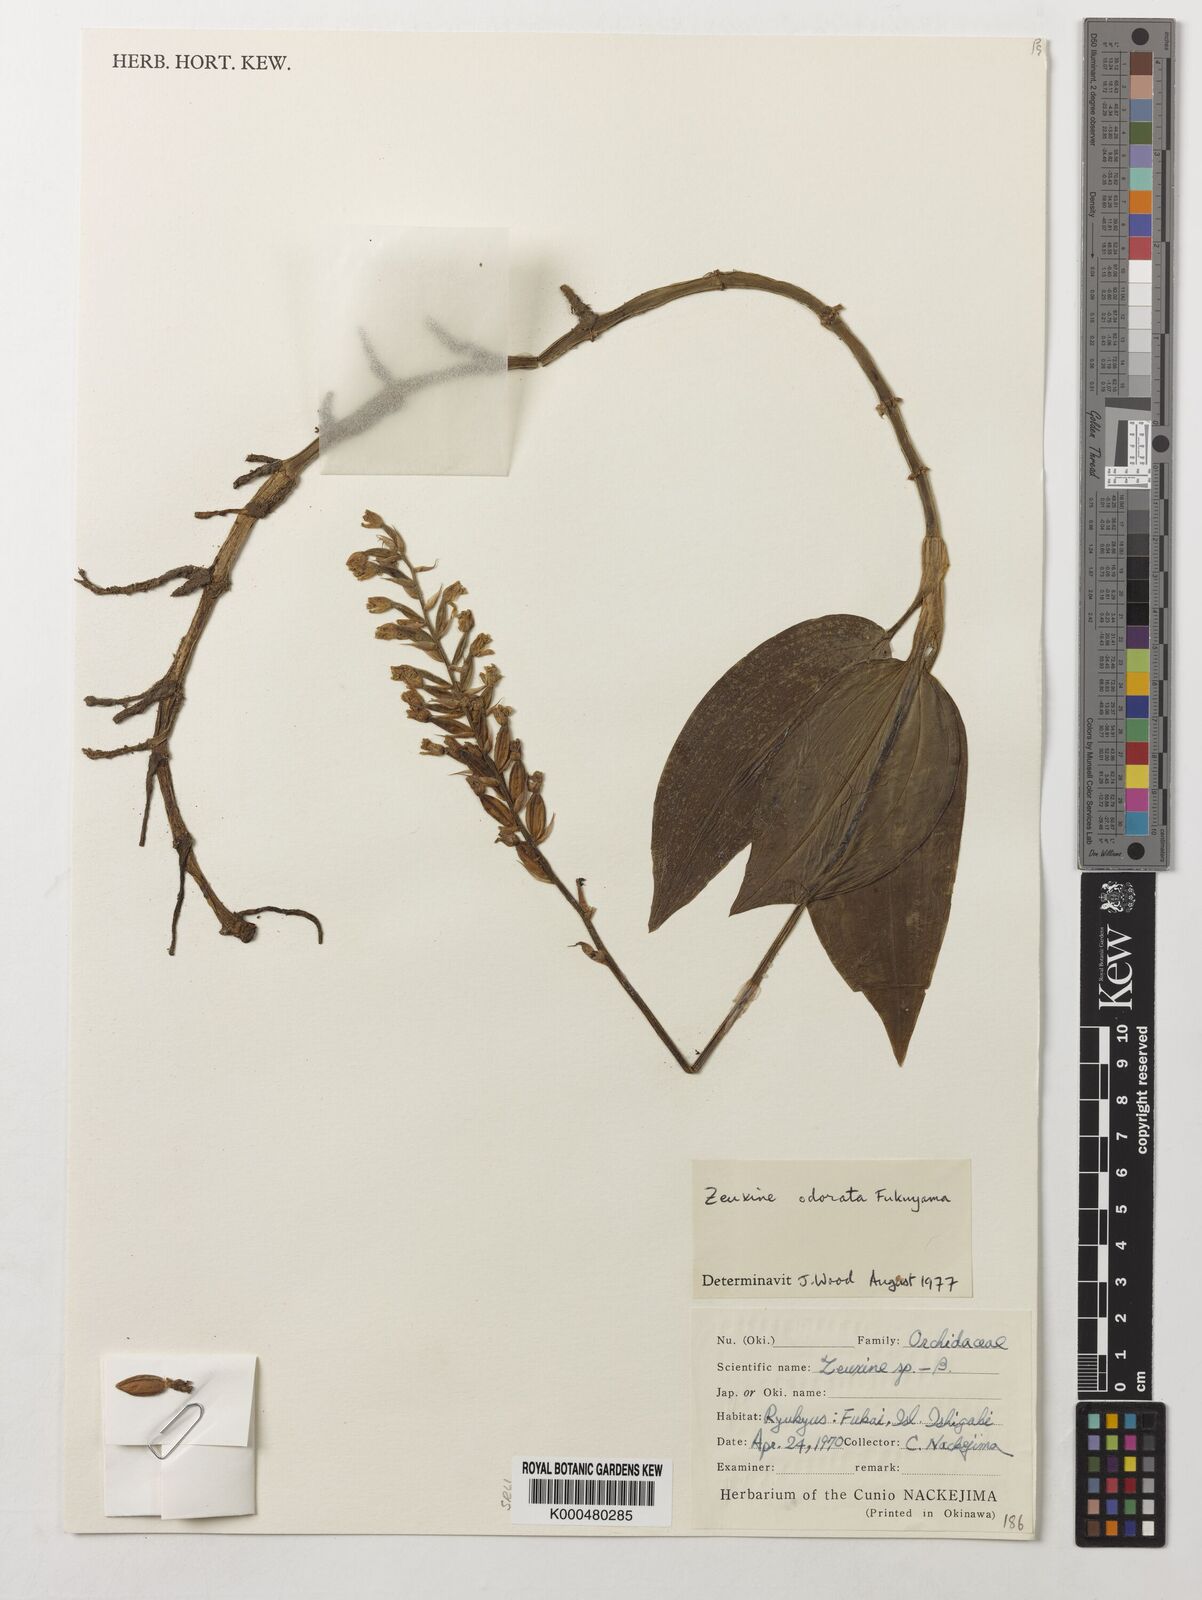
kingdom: Plantae
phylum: Tracheophyta
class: Liliopsida
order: Asparagales
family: Orchidaceae
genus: Zeuxine
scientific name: Zeuxine odorata
